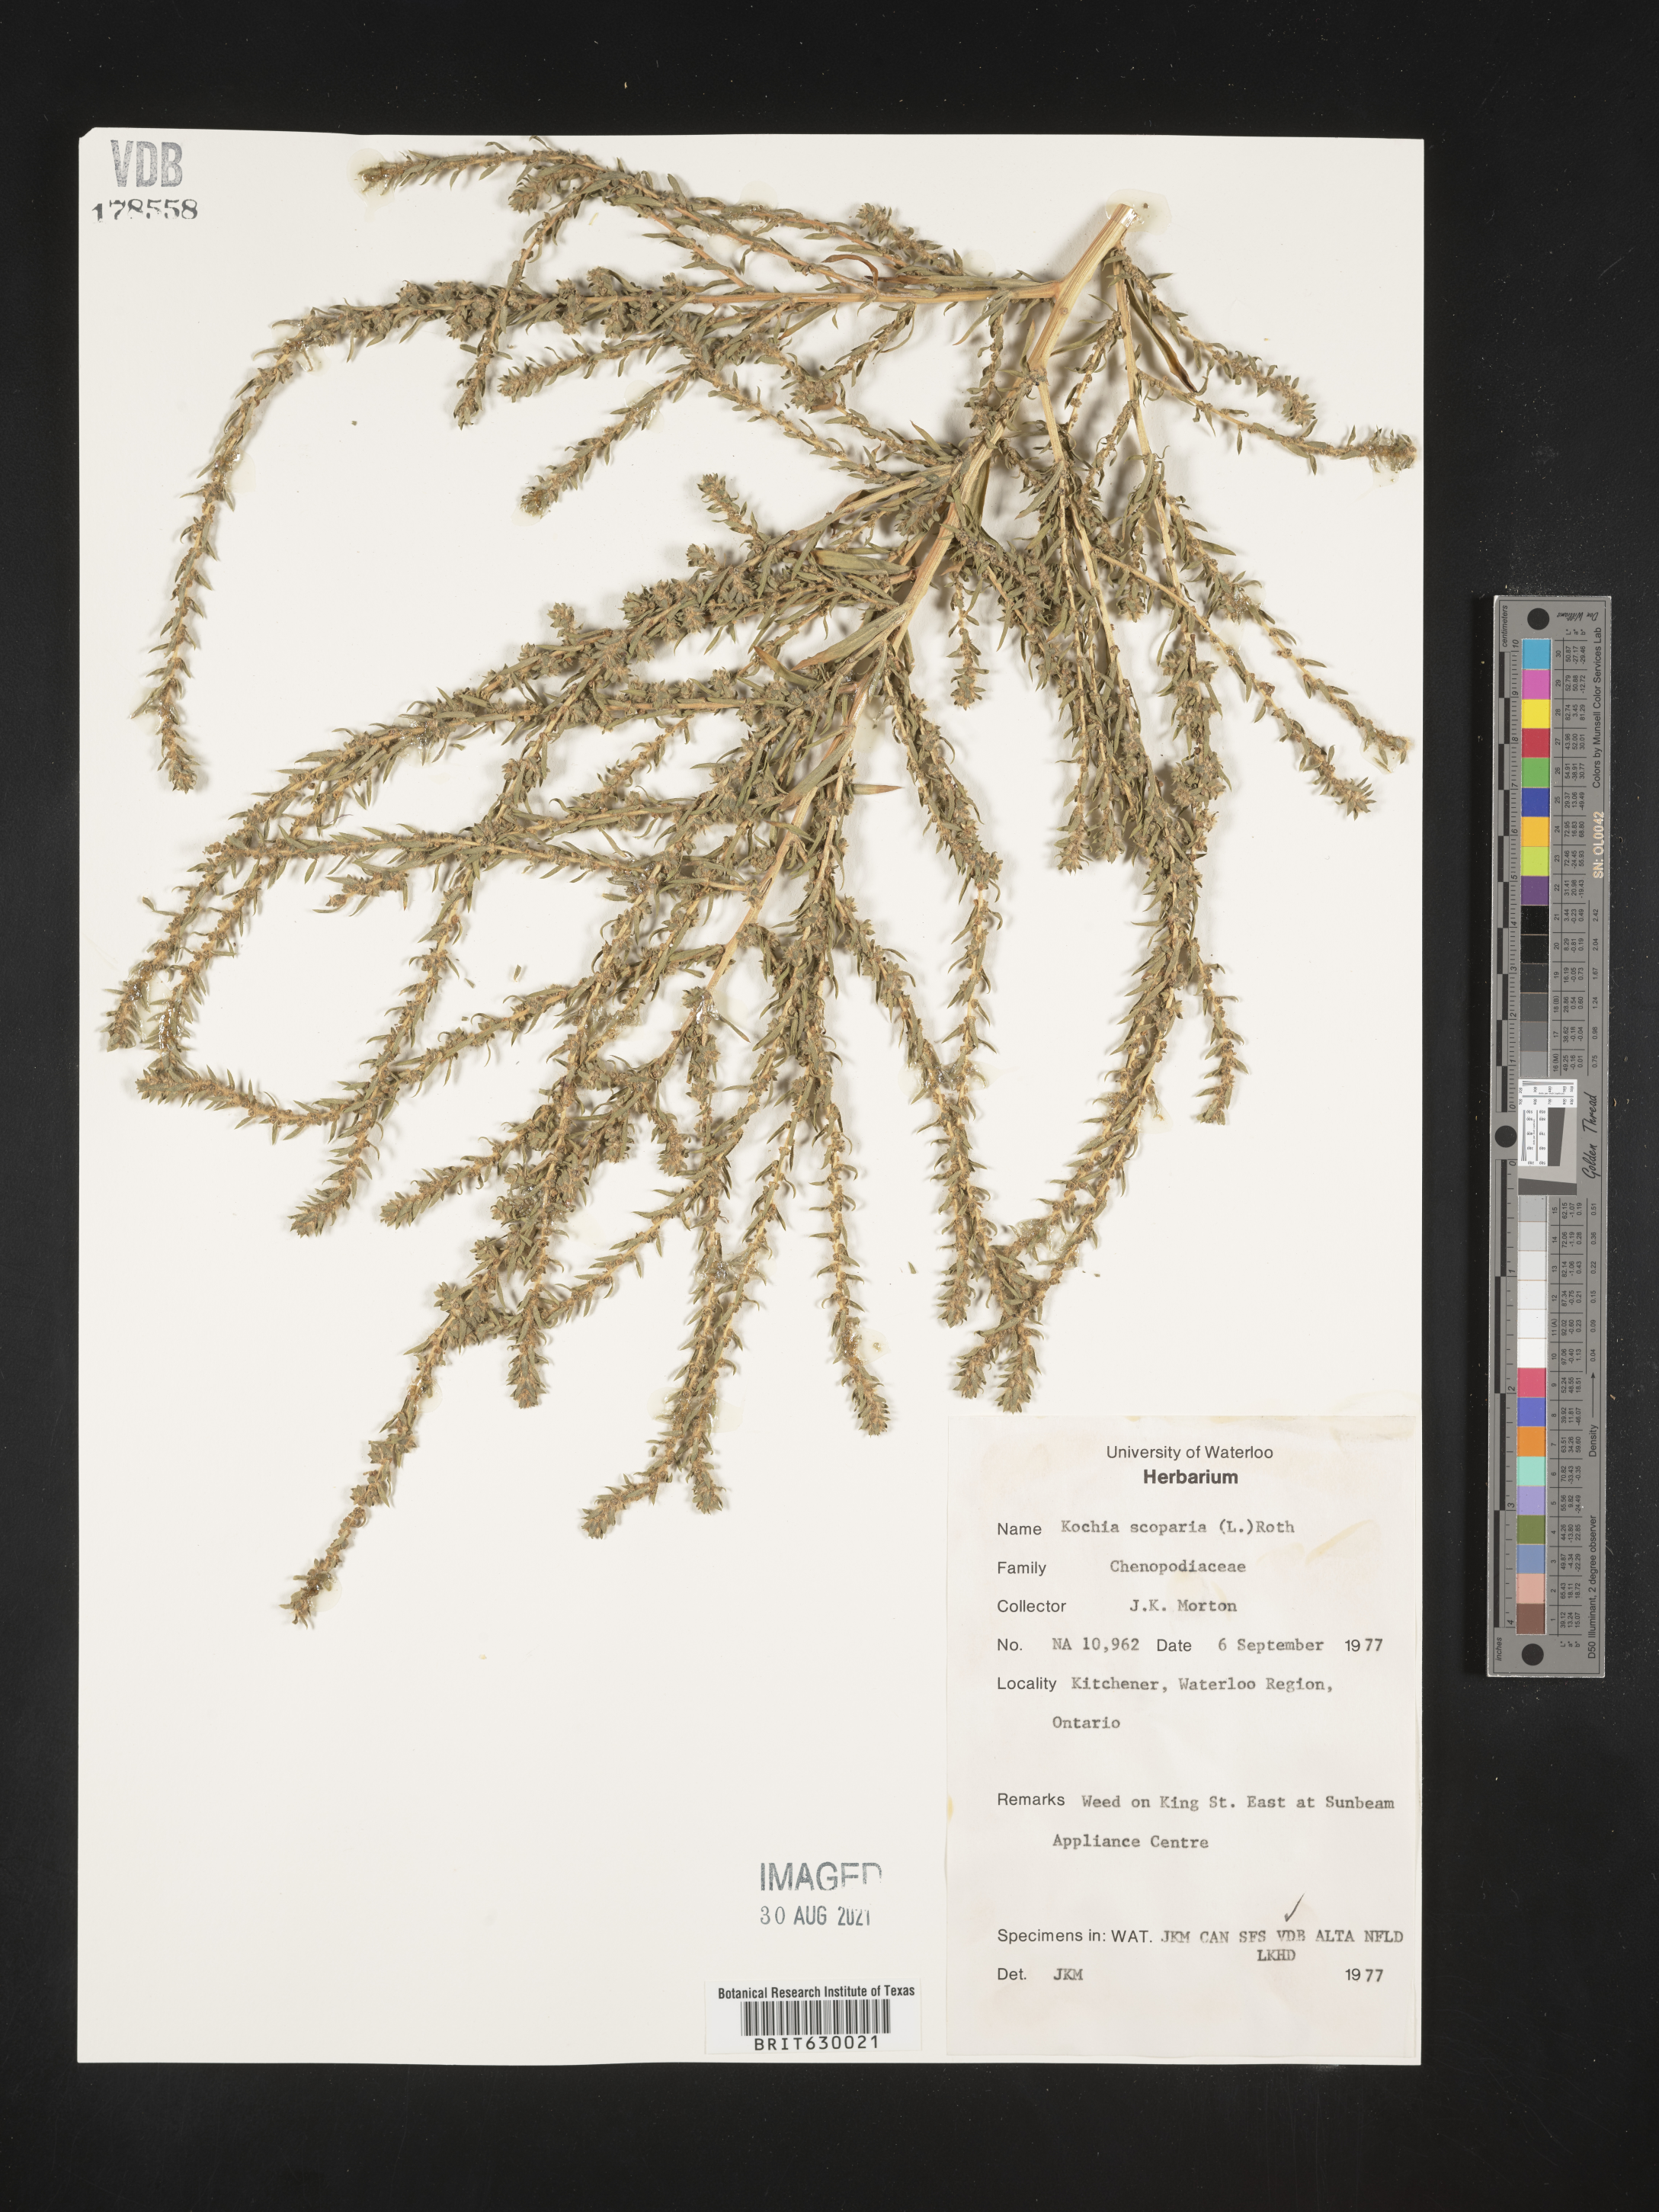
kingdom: Plantae
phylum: Tracheophyta
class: Magnoliopsida
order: Caryophyllales
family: Amaranthaceae
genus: Bassia
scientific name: Bassia scoparia
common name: Belvedere
